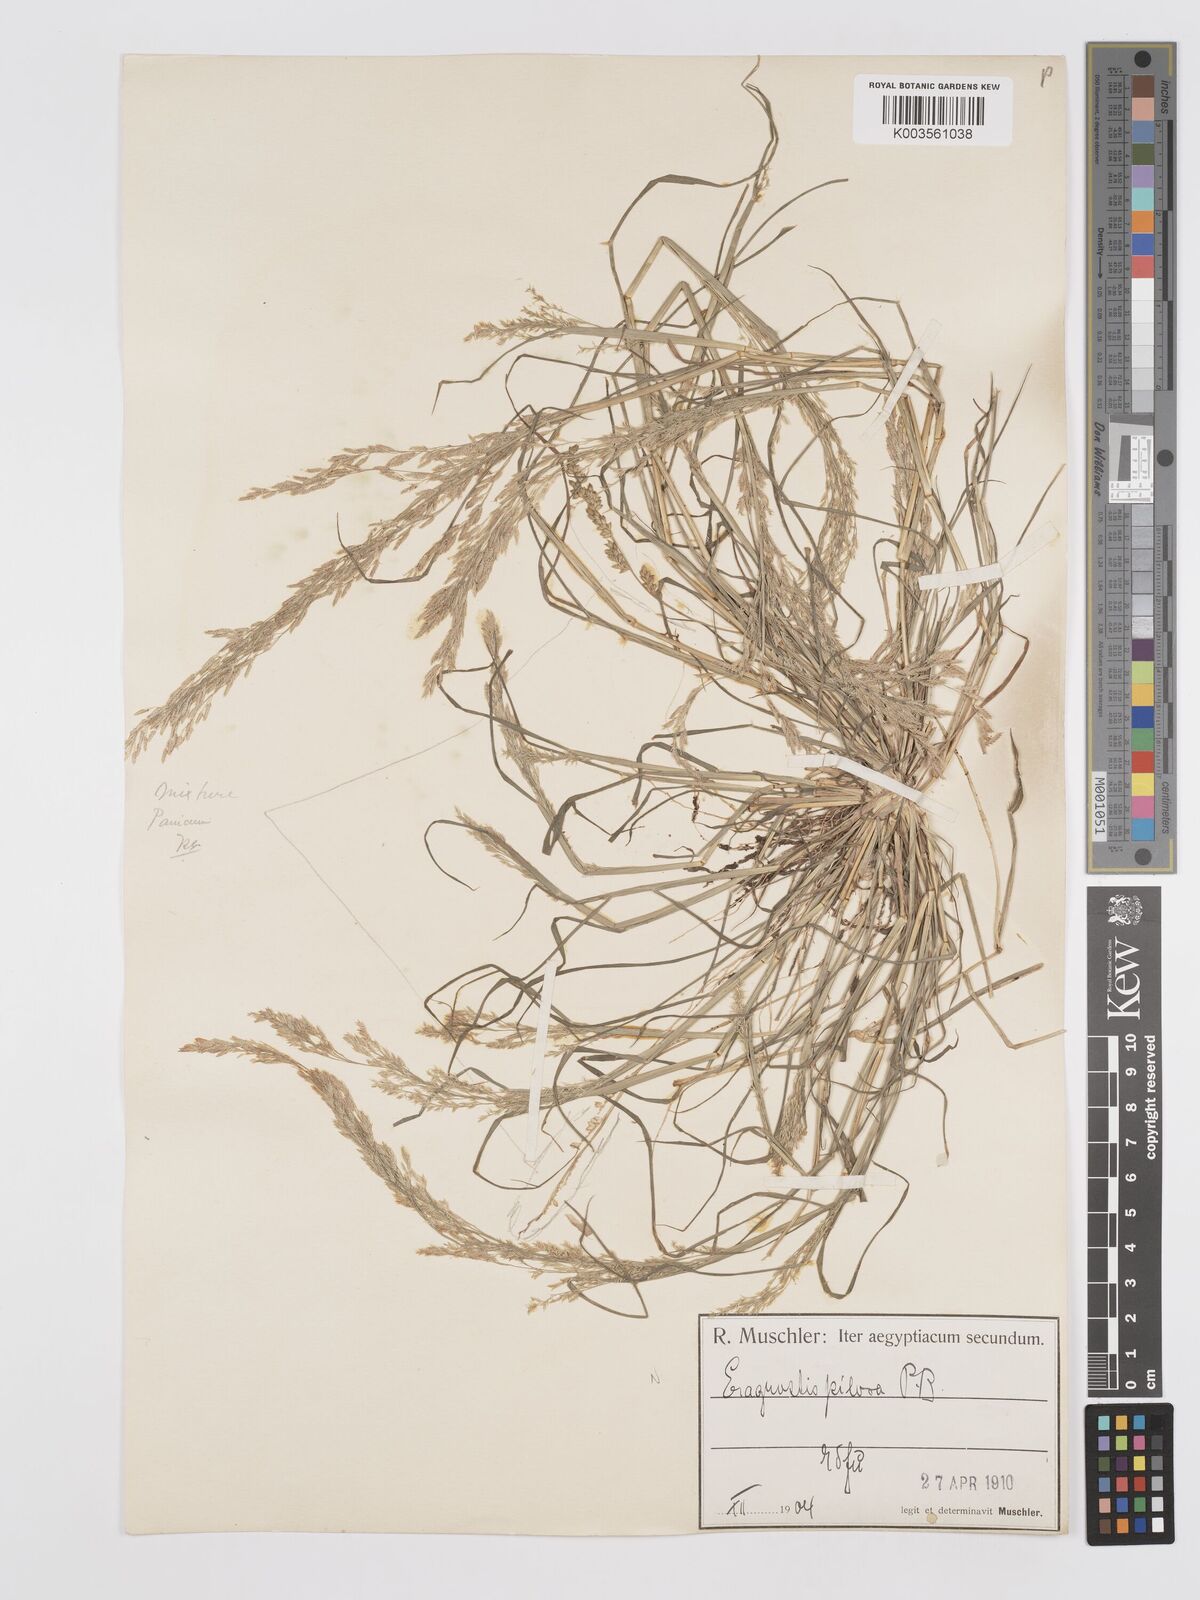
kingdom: Plantae
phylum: Tracheophyta
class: Liliopsida
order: Poales
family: Poaceae
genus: Eragrostis
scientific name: Eragrostis aegyptiaca
